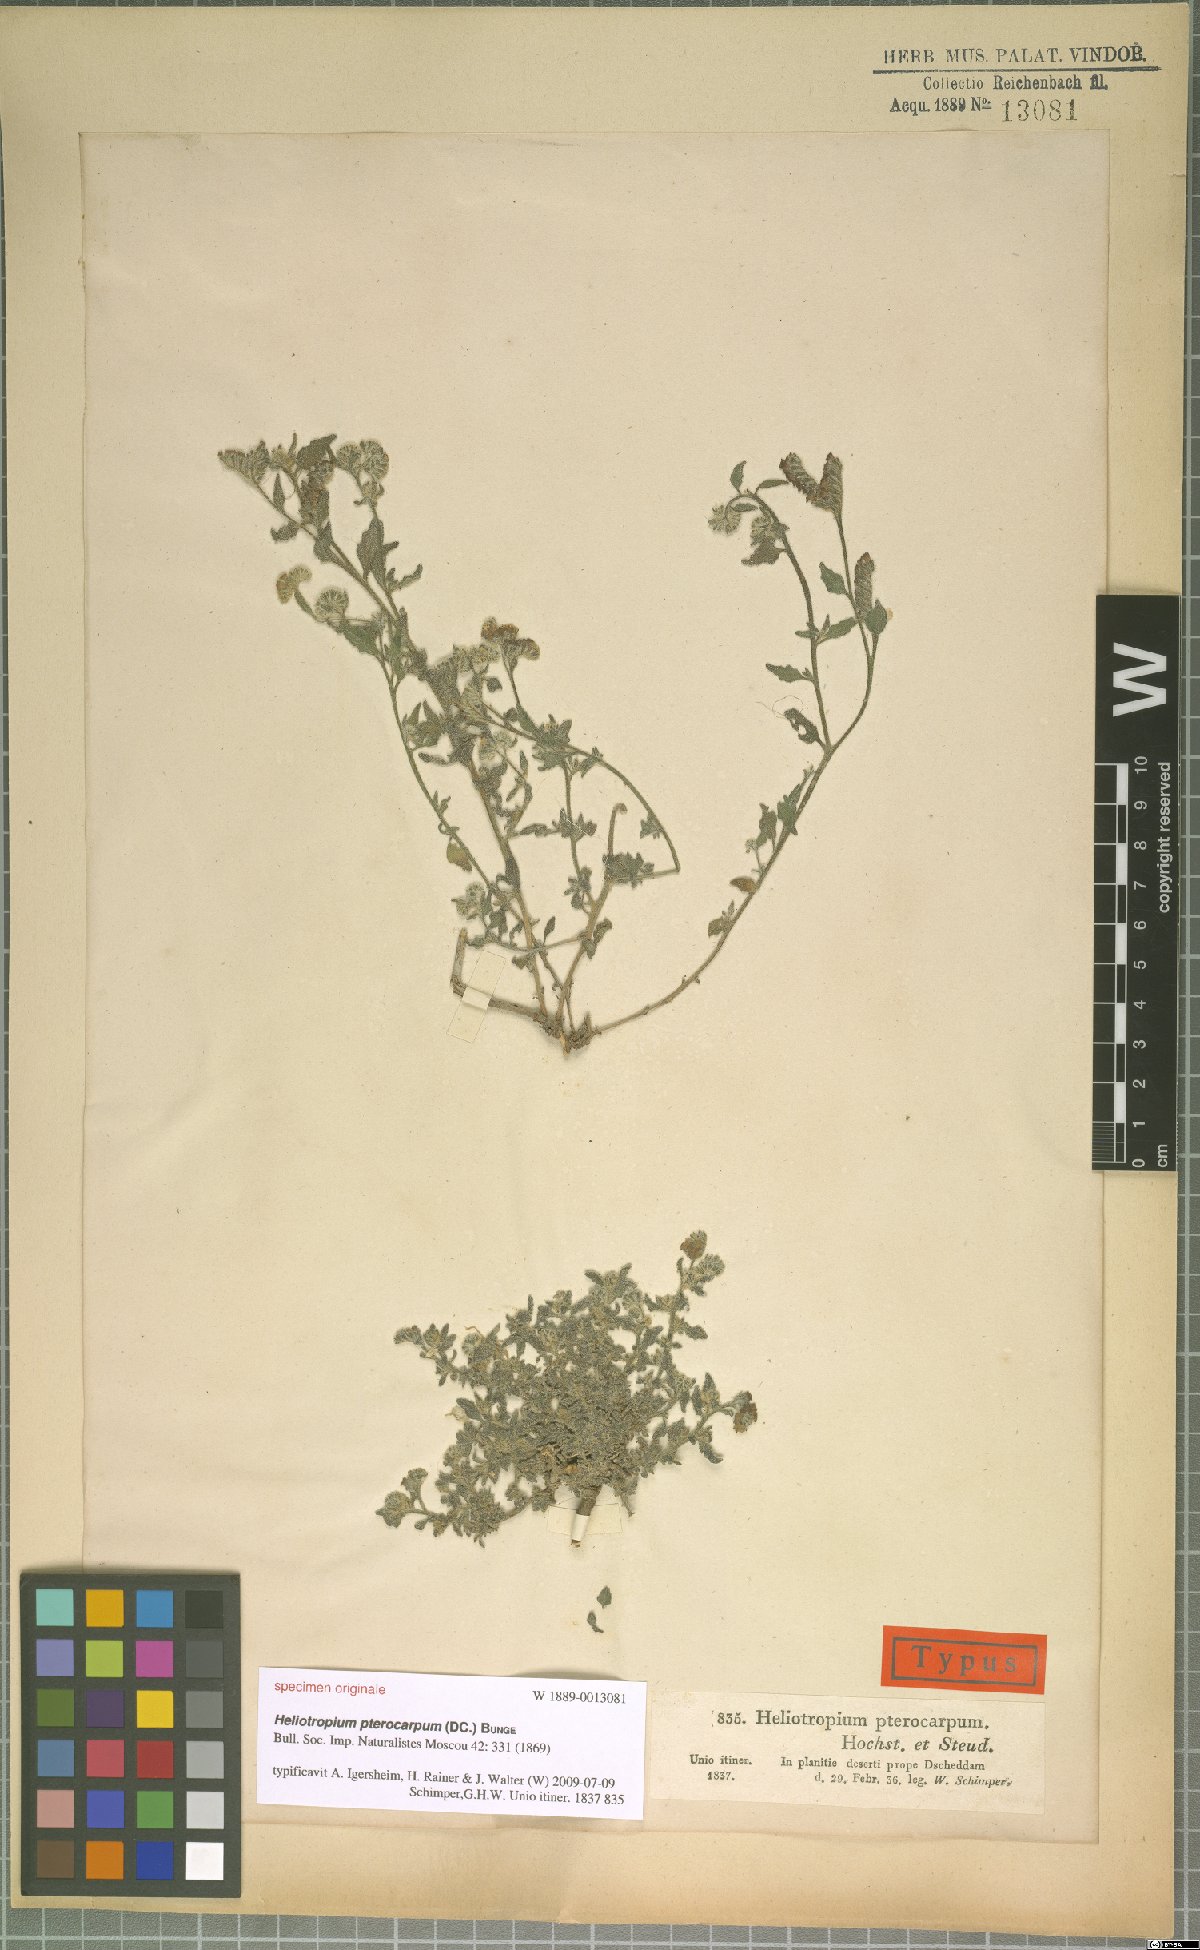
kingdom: Plantae
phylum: Tracheophyta
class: Magnoliopsida
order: Boraginales
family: Heliotropiaceae
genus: Heliotropium
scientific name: Heliotropium pterocarpum
